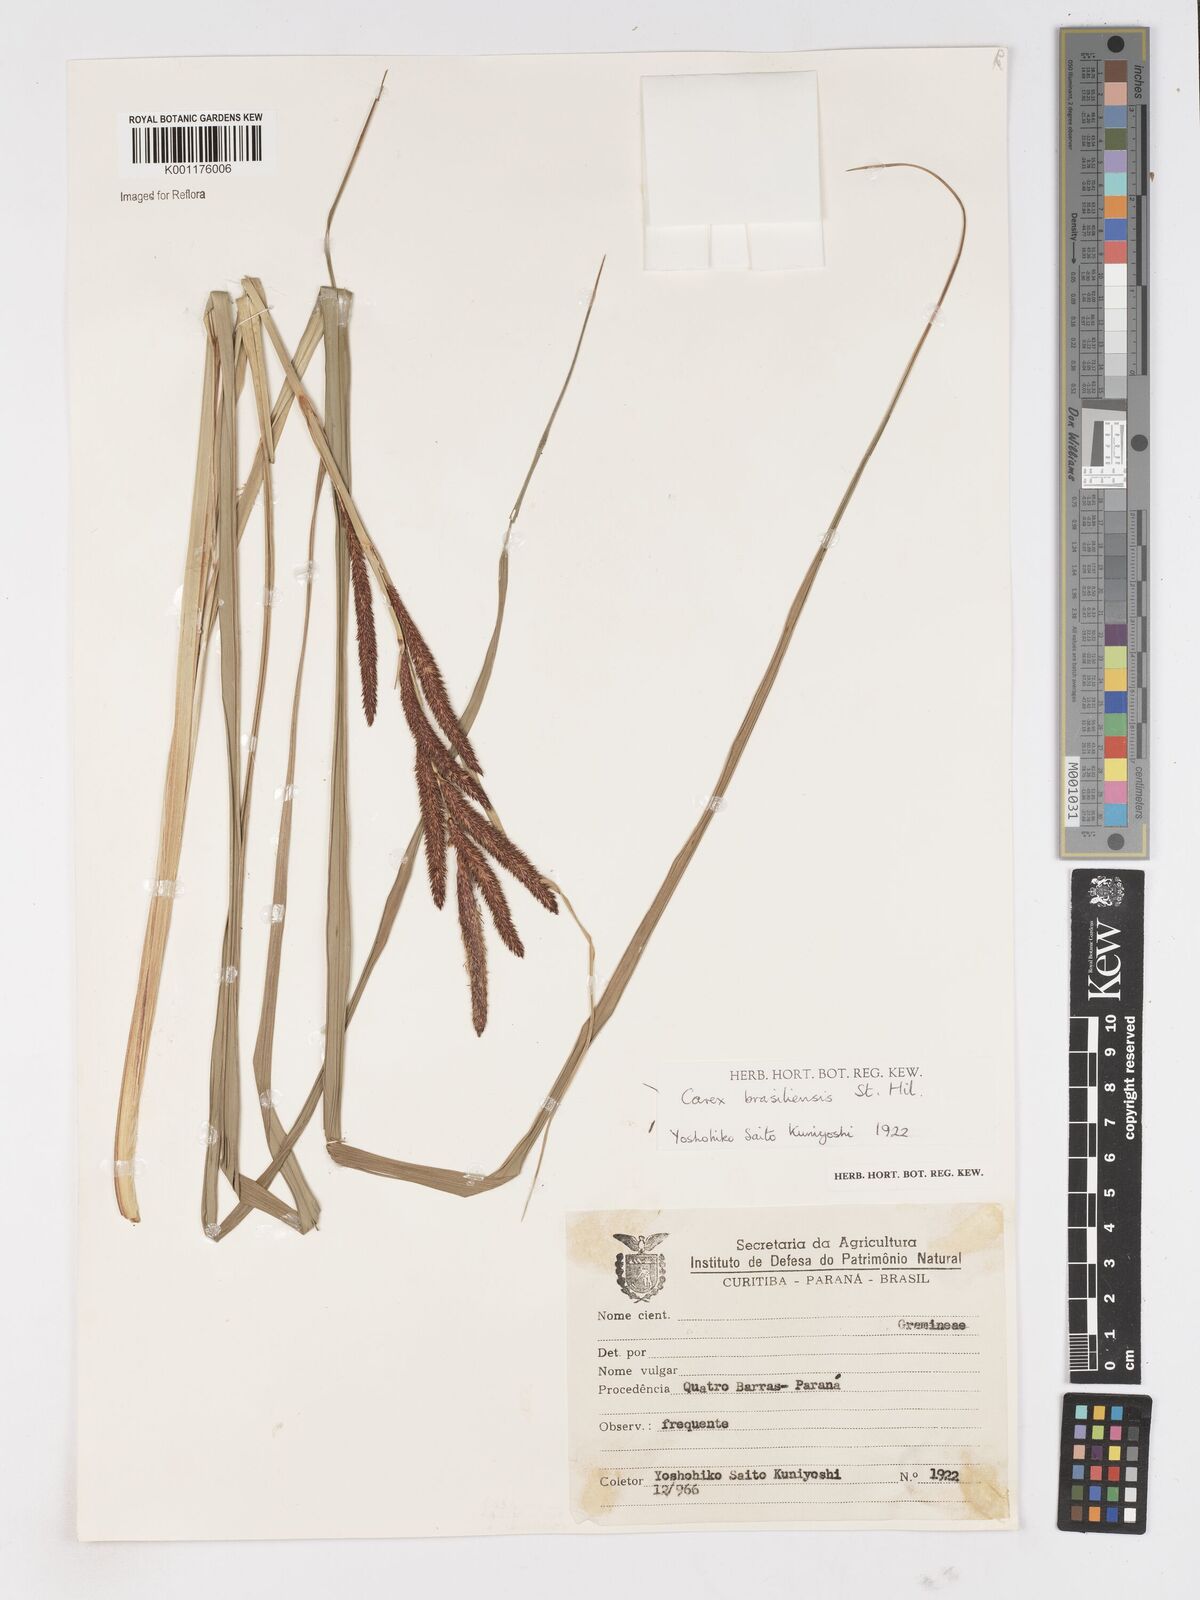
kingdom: Plantae
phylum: Tracheophyta
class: Liliopsida
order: Poales
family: Cyperaceae
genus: Carex
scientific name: Carex brasiliensis
